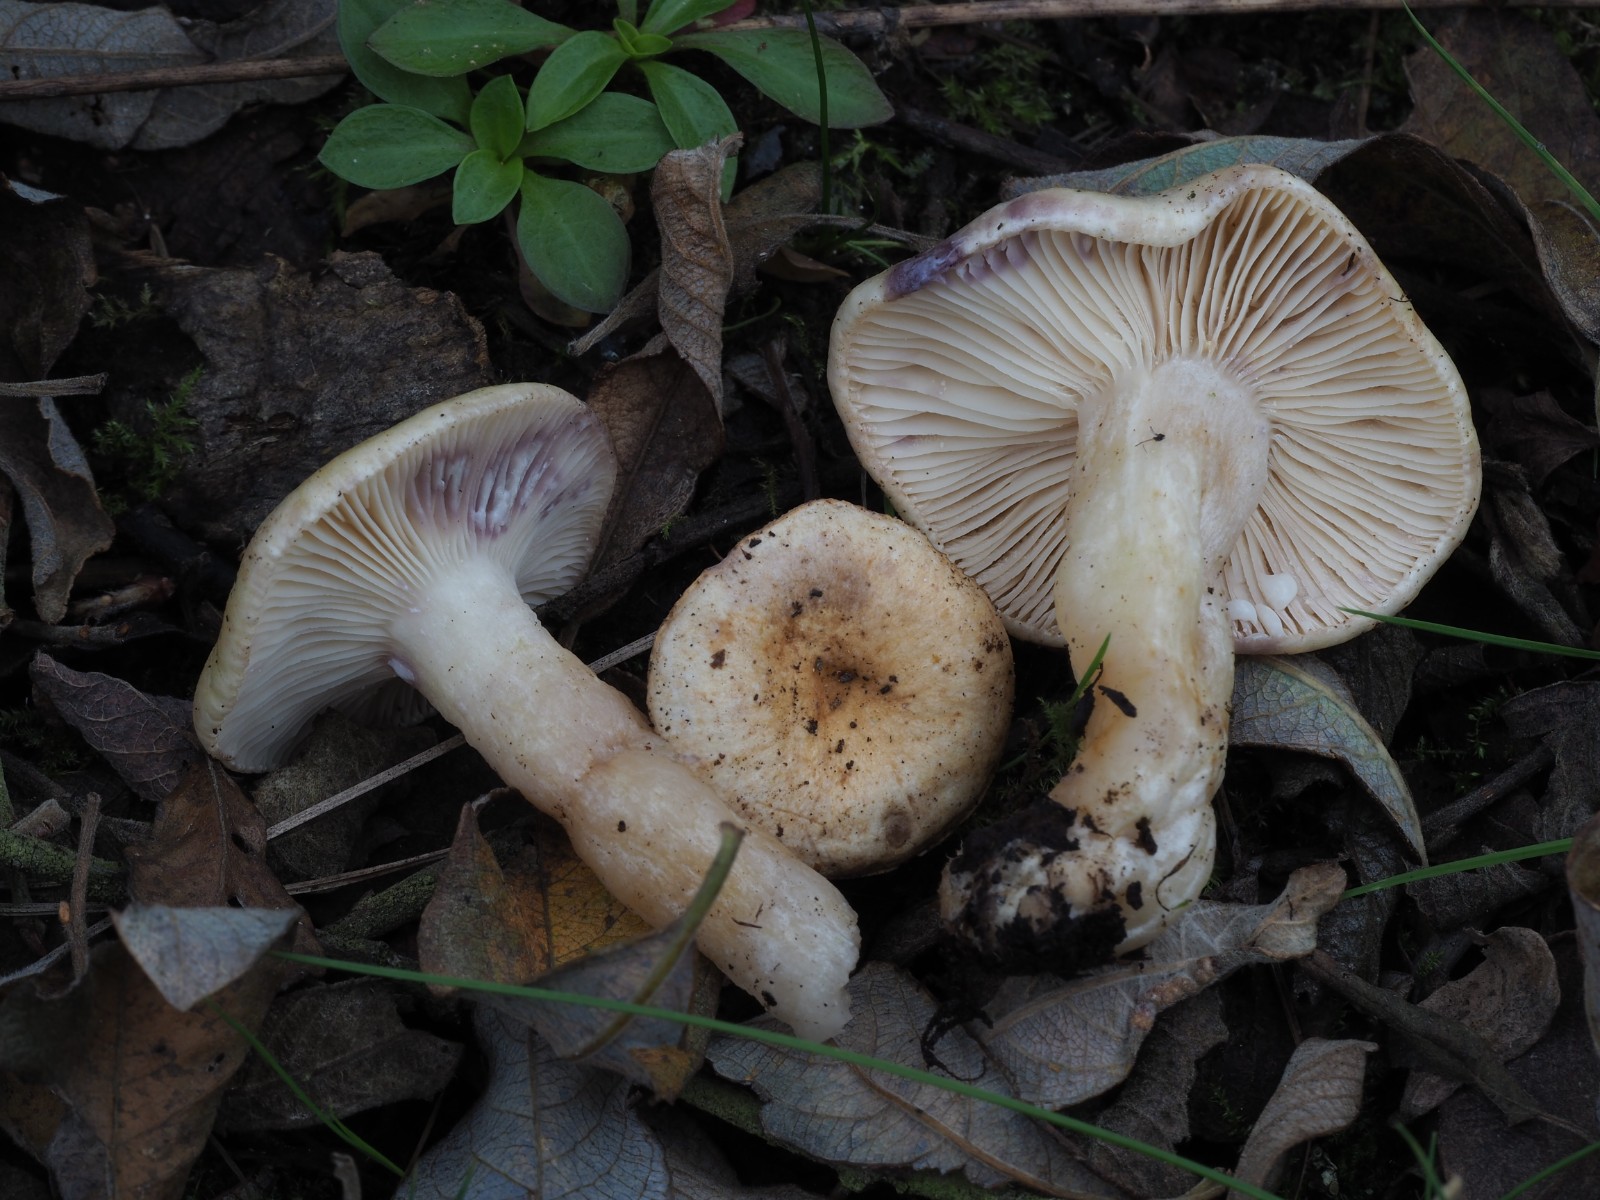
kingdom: Fungi
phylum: Basidiomycota
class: Agaricomycetes
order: Russulales
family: Russulaceae
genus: Lactarius
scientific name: Lactarius aspideus
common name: pile-mælkehat
